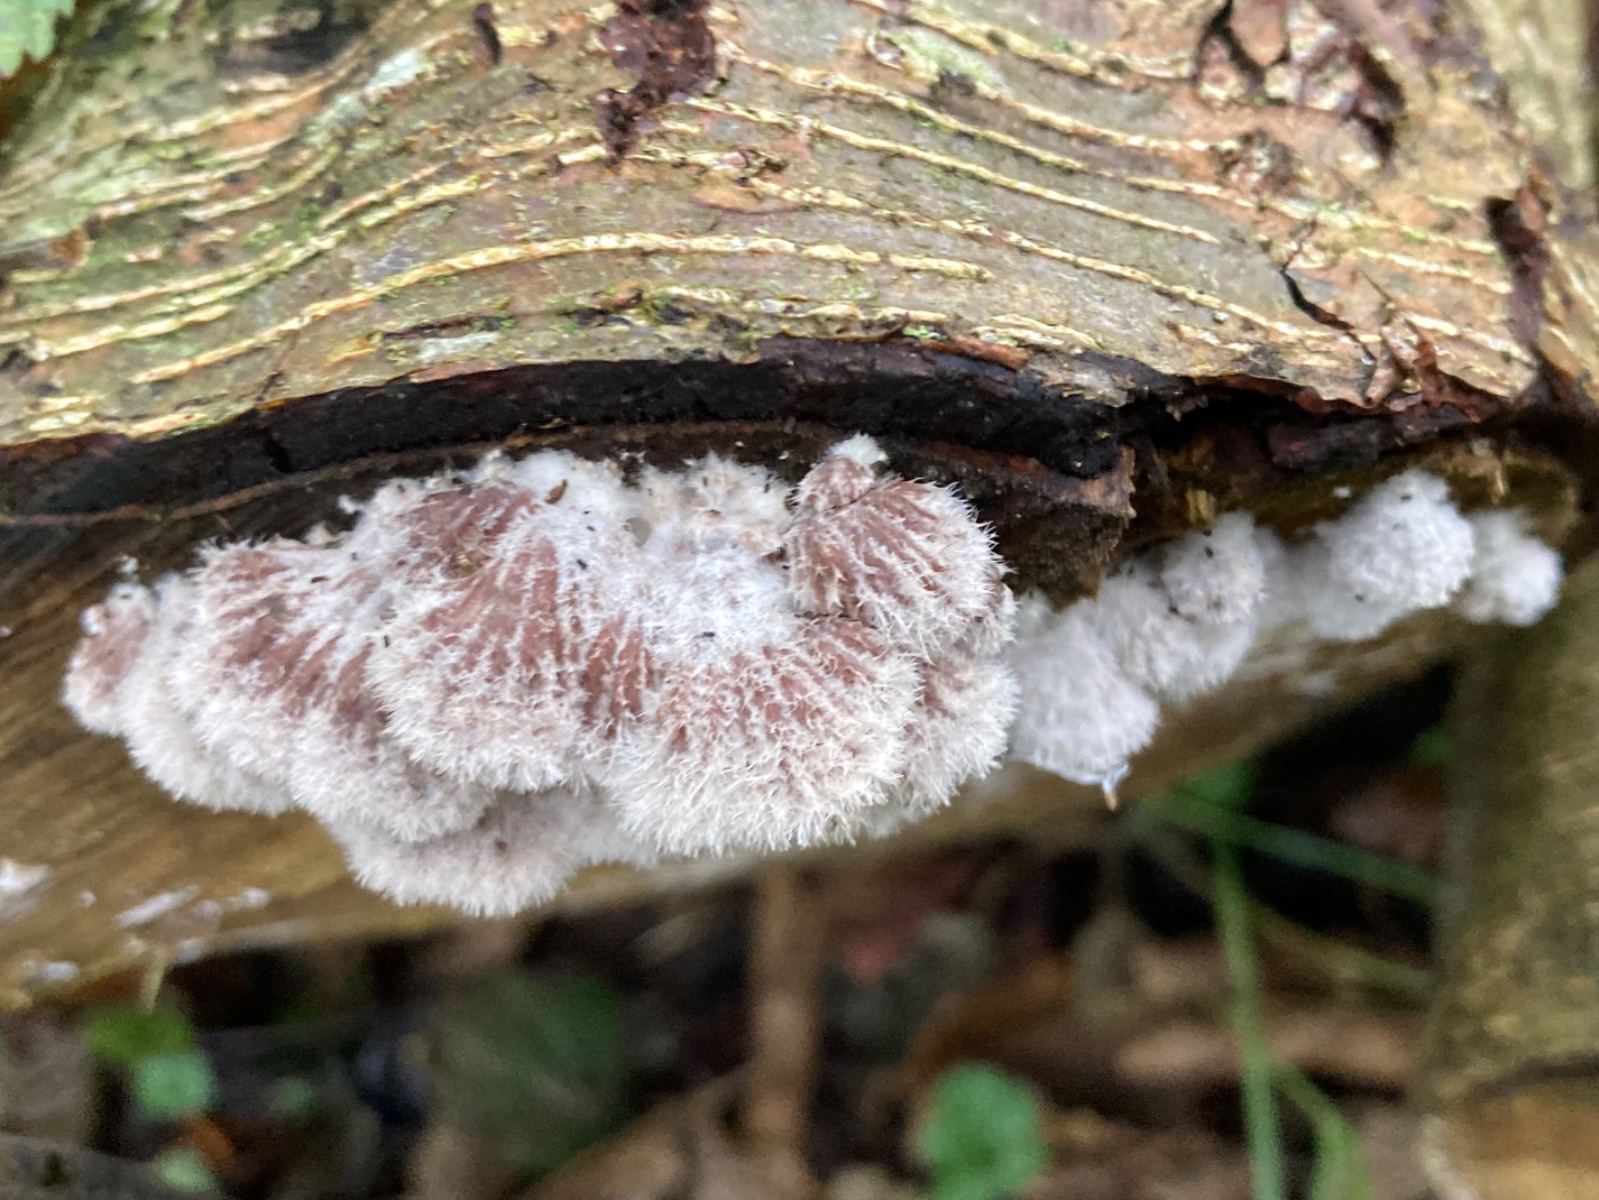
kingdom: Fungi
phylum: Basidiomycota
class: Agaricomycetes
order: Agaricales
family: Schizophyllaceae
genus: Schizophyllum
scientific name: Schizophyllum commune
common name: kløvblad
